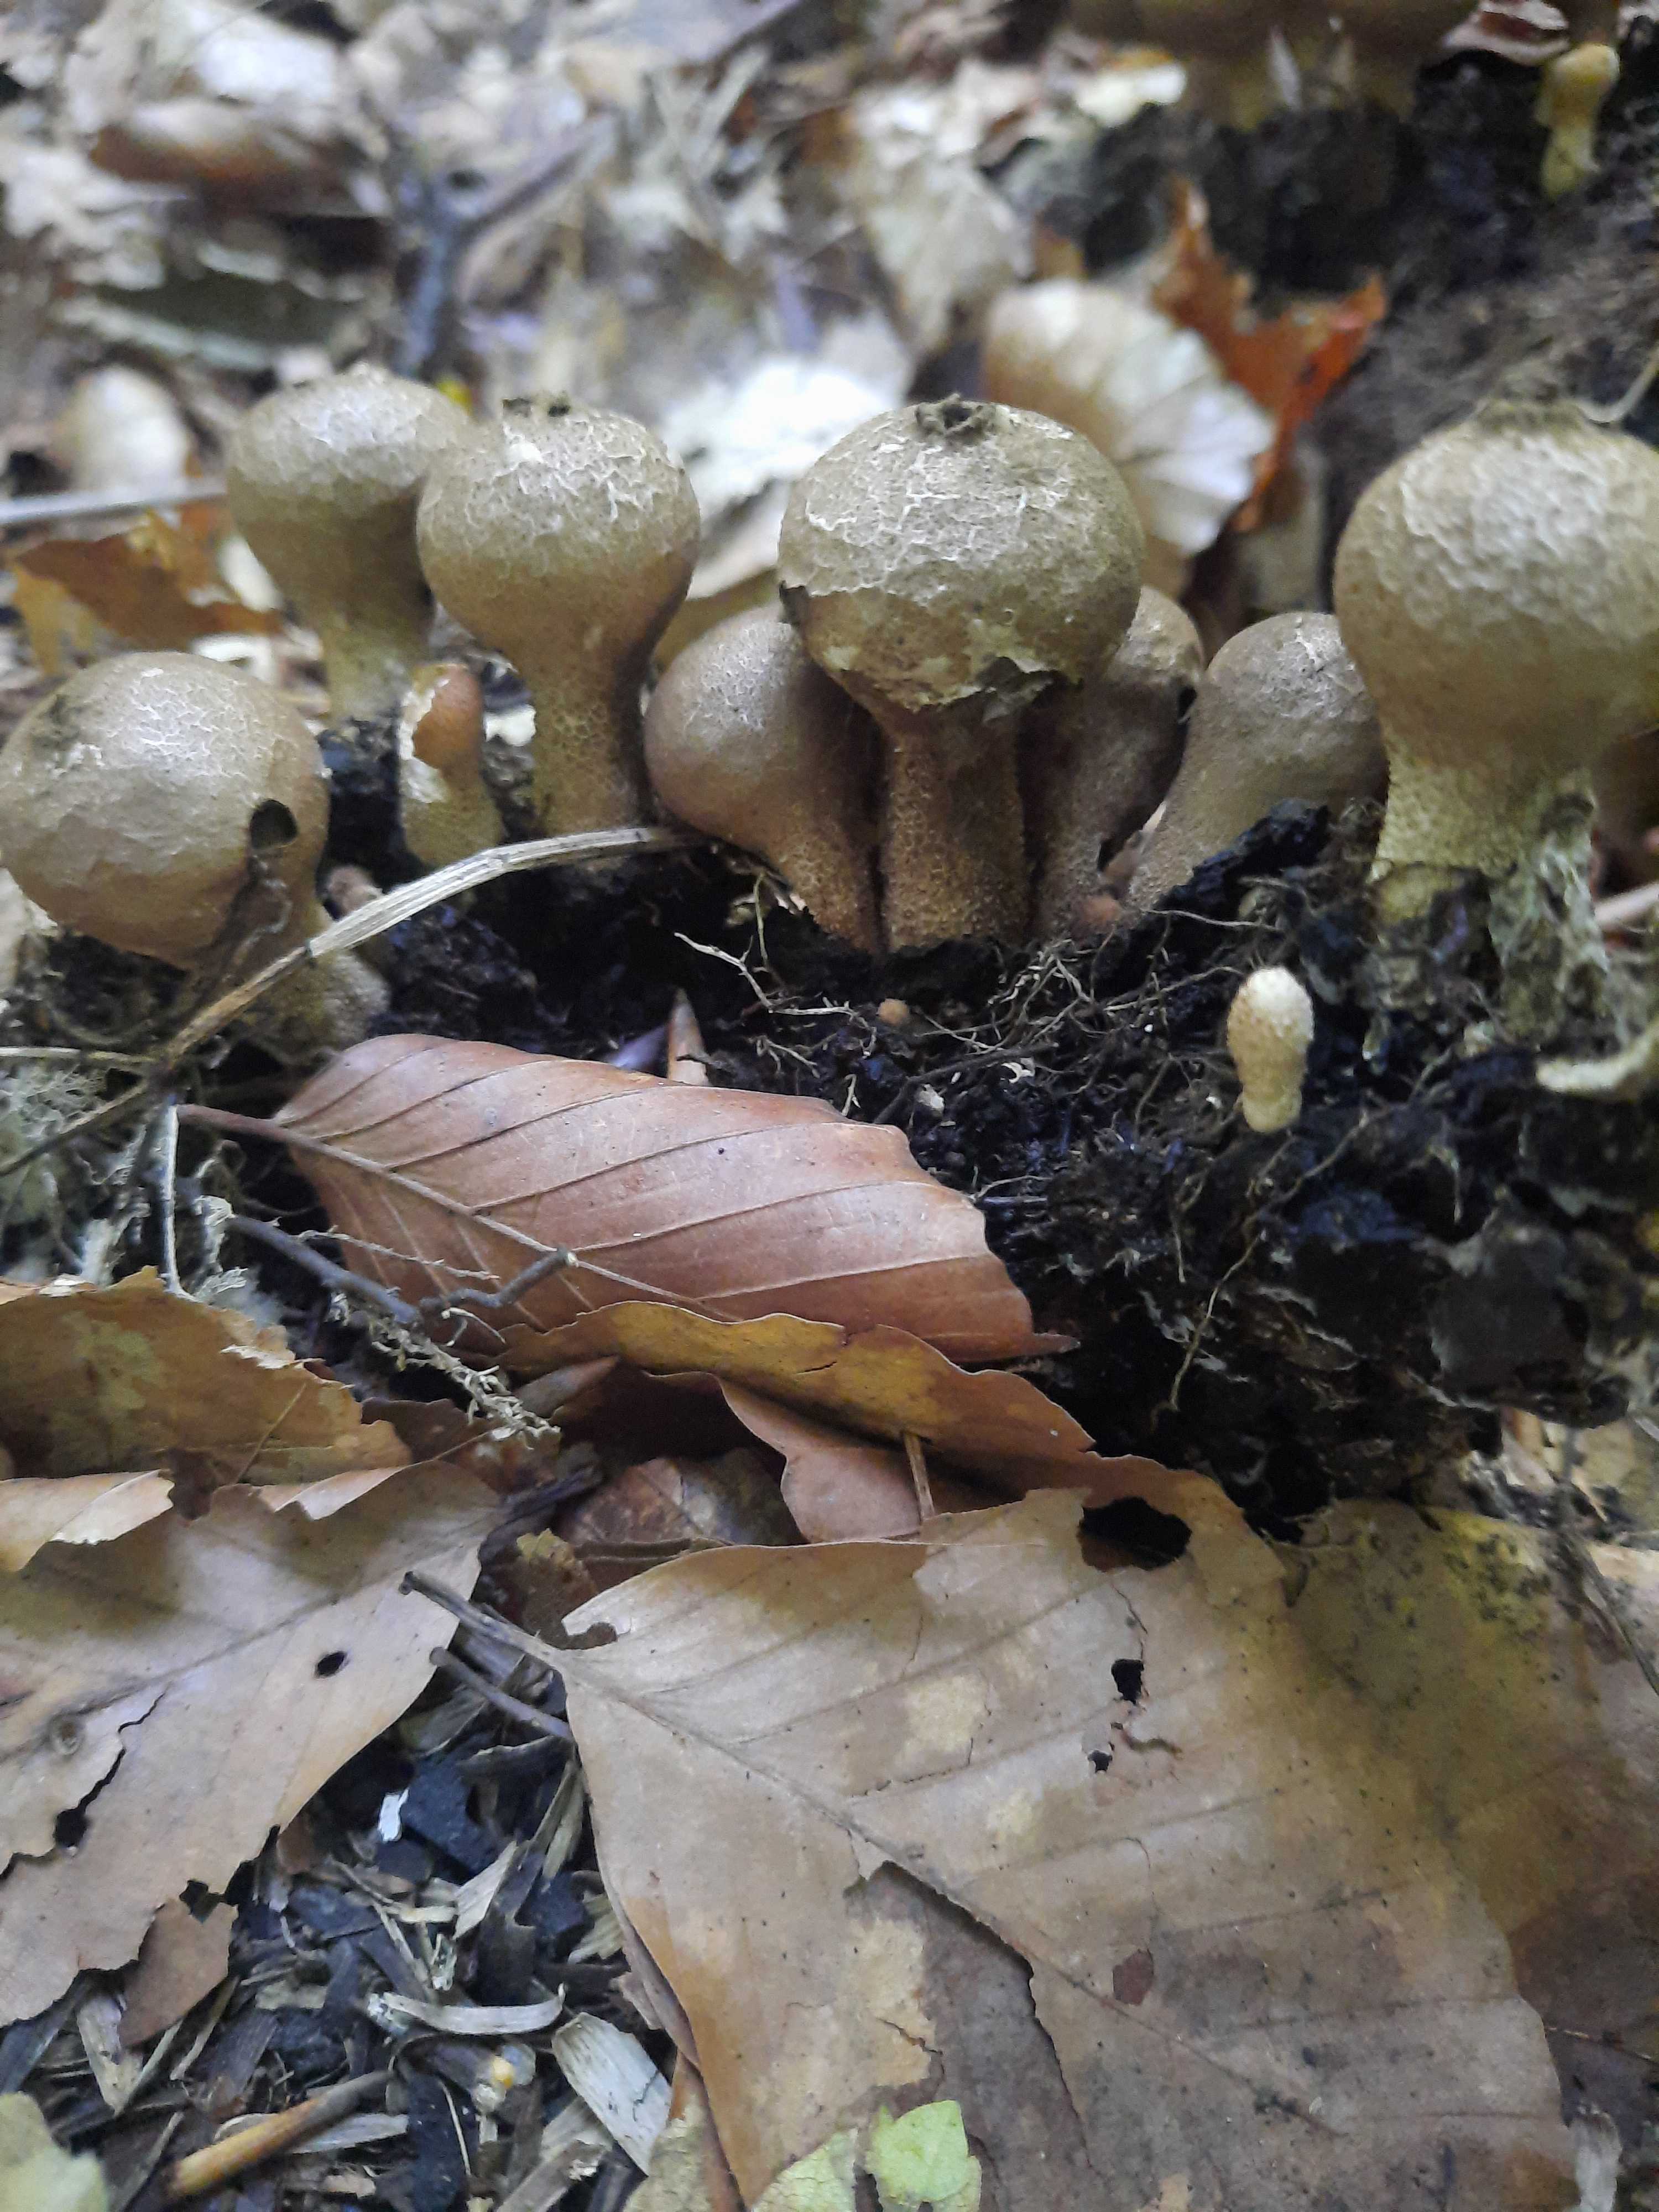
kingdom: Fungi
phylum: Basidiomycota
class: Agaricomycetes
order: Agaricales
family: Lycoperdaceae
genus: Apioperdon
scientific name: Apioperdon pyriforme
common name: pære-støvbold
